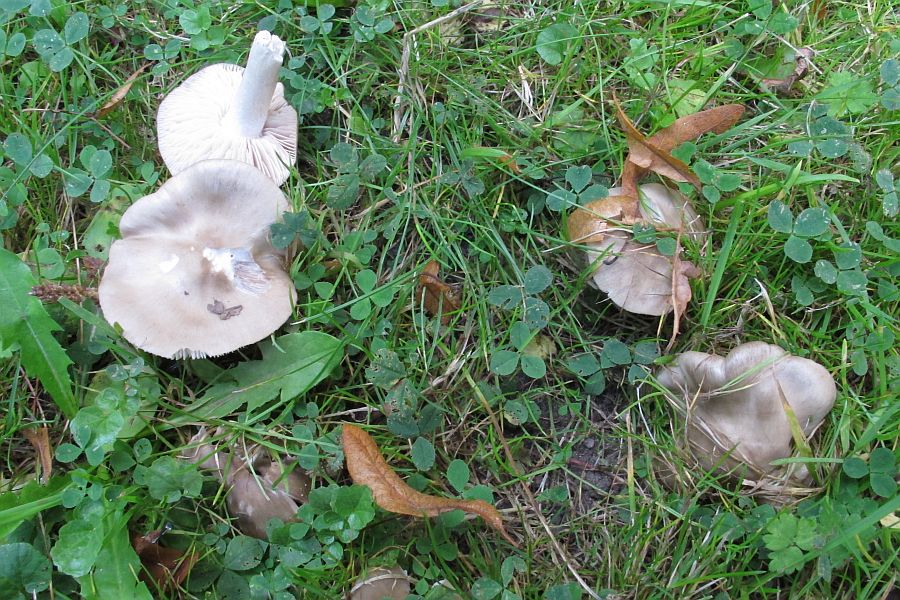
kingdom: Fungi
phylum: Basidiomycota
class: Agaricomycetes
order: Agaricales
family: Entolomataceae
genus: Entoloma
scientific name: Entoloma lividoalbum
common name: lysstokket rødblad
